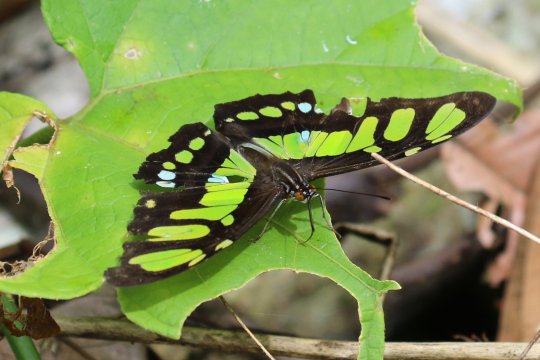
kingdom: Animalia
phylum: Arthropoda
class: Insecta
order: Lepidoptera
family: Nymphalidae
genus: Metamorpha
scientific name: Metamorpha
